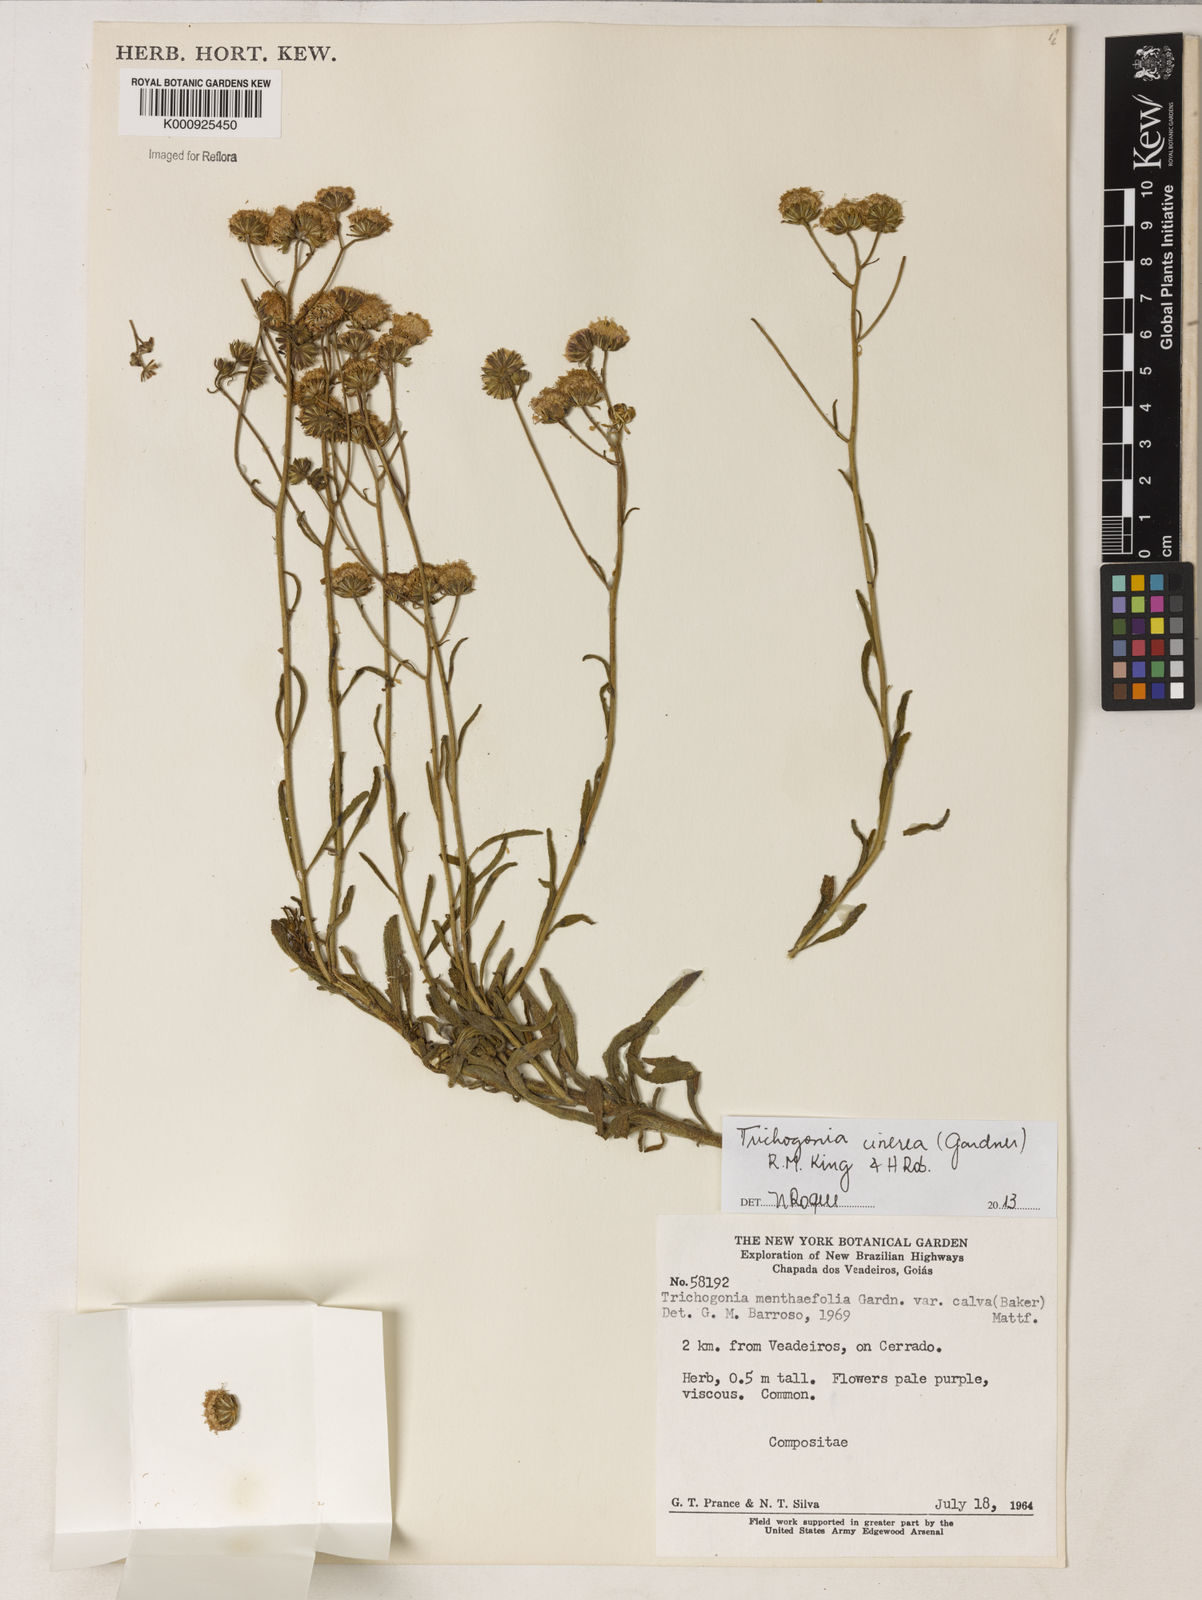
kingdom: Plantae
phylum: Tracheophyta
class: Magnoliopsida
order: Asterales
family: Asteraceae
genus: Trichogonia
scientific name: Trichogonia cinerea
